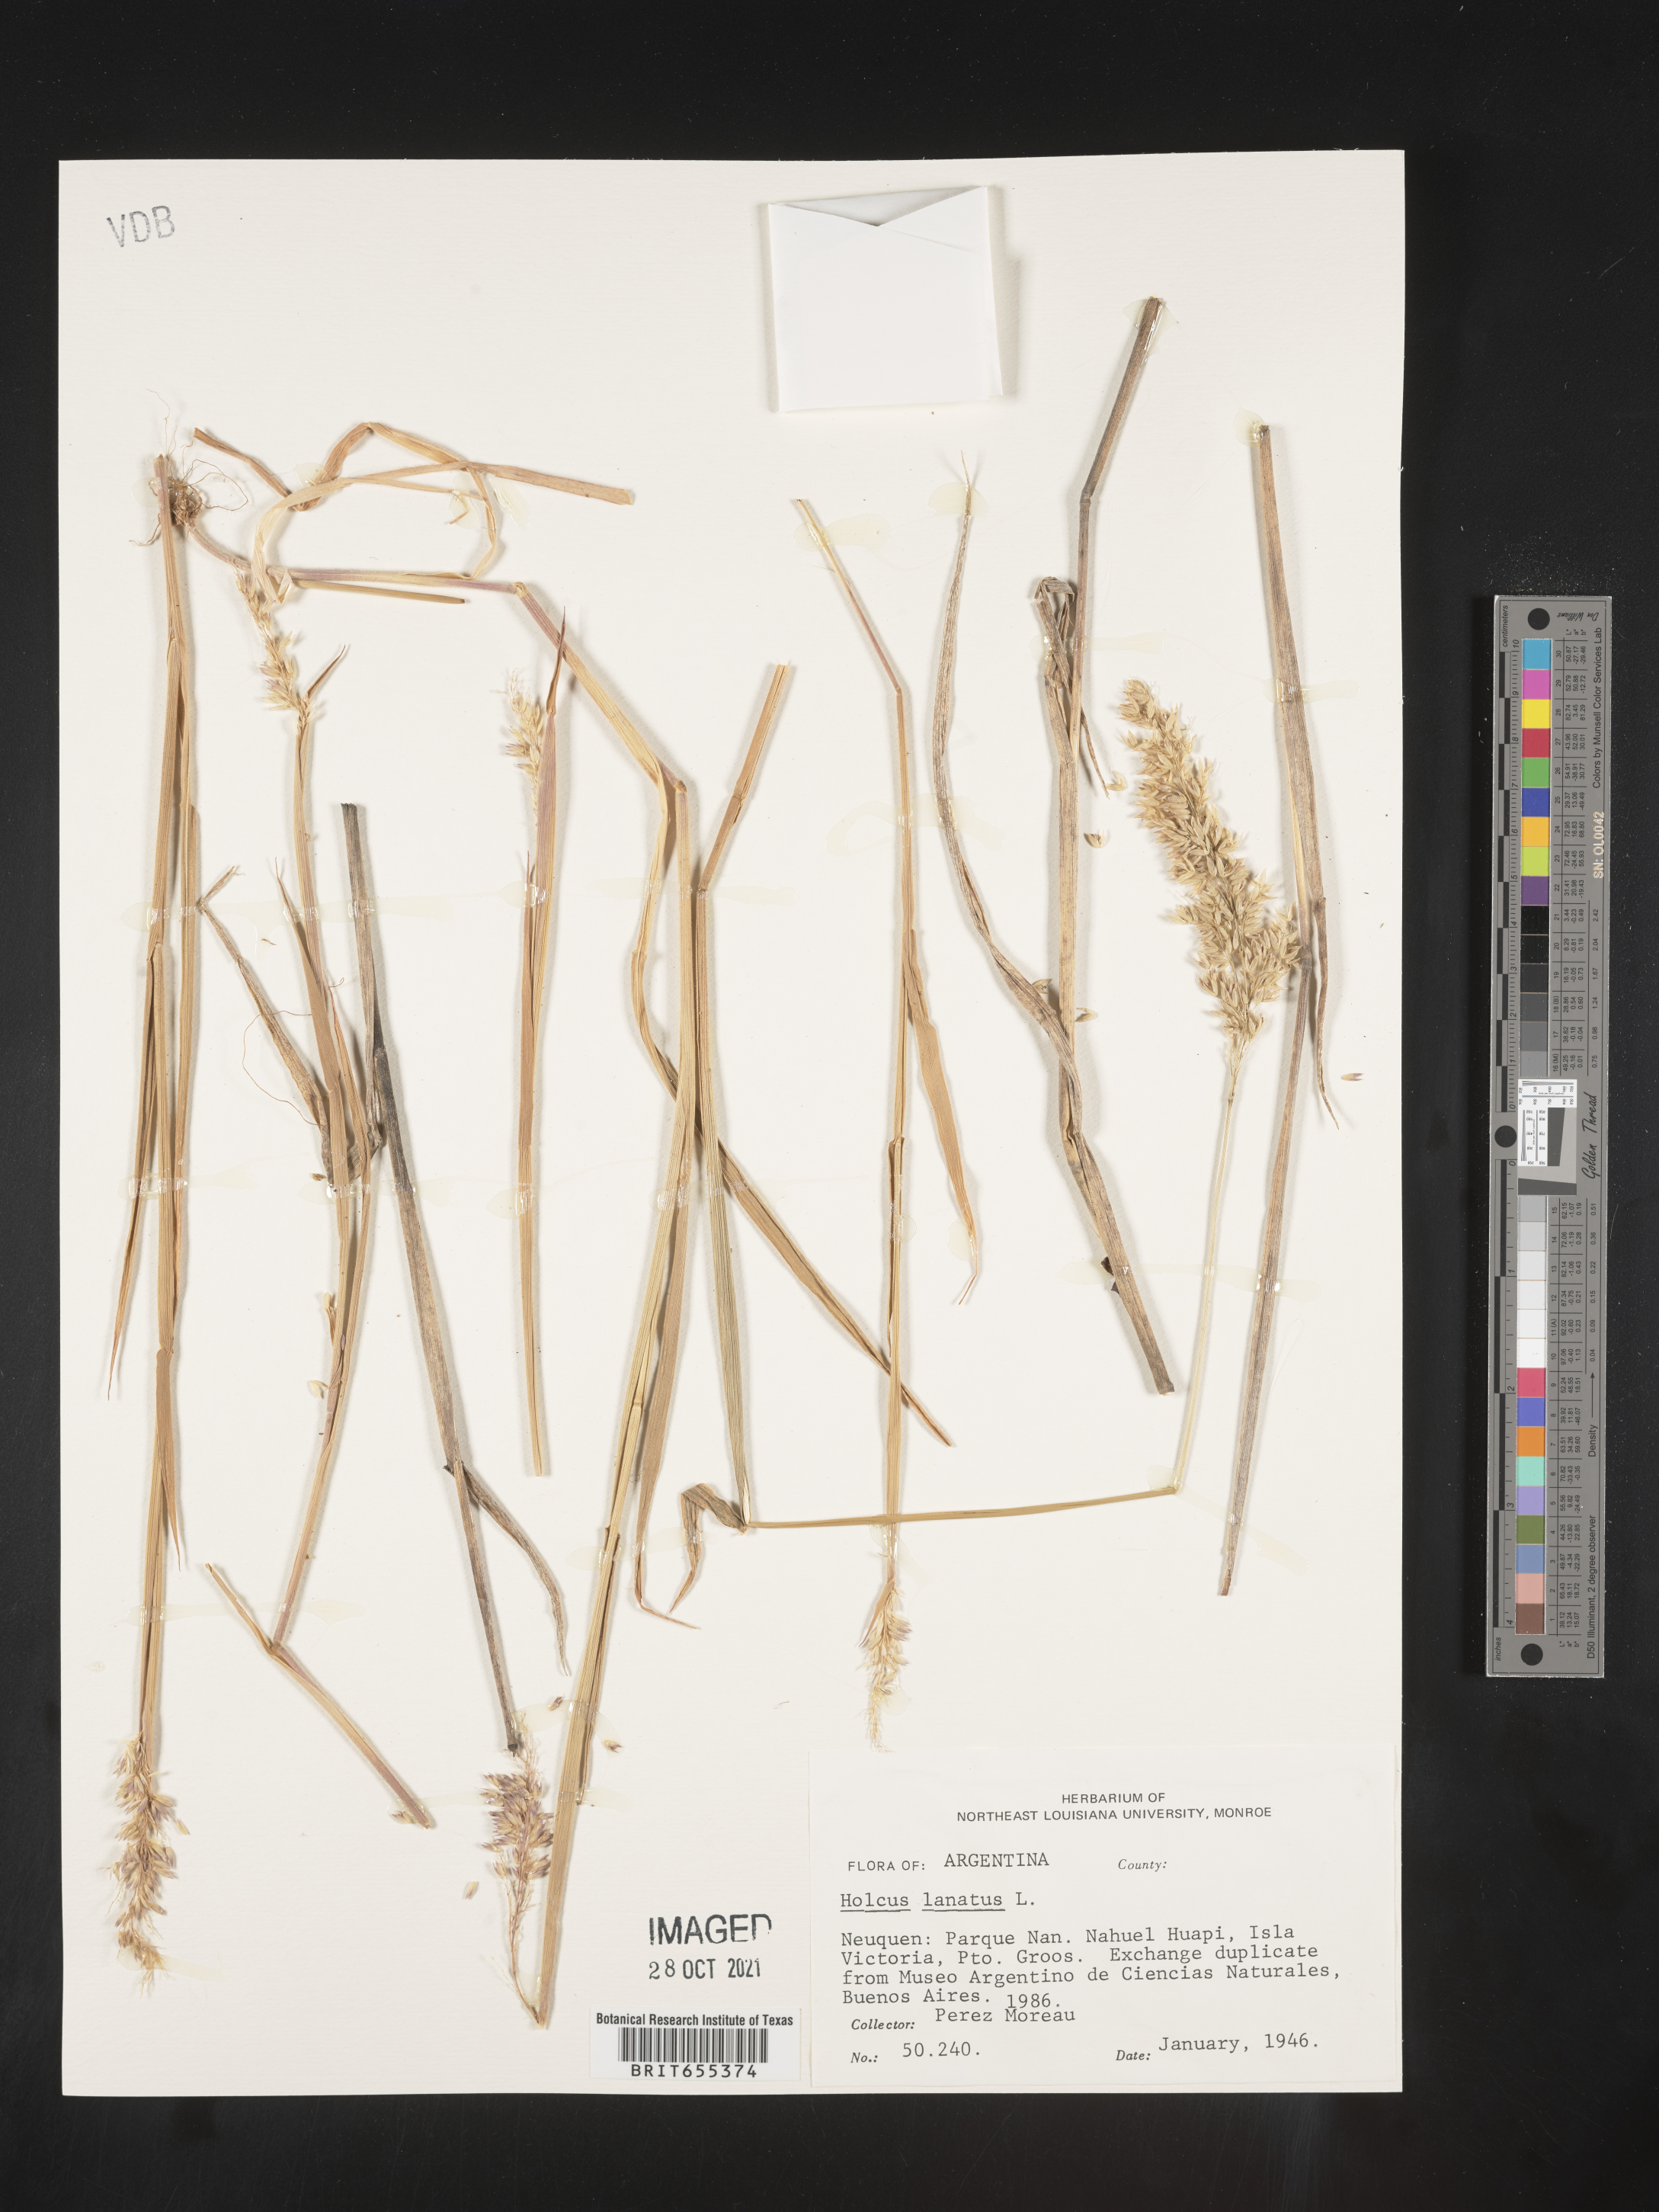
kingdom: Plantae
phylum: Tracheophyta
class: Liliopsida
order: Poales
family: Poaceae
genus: Holcus
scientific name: Holcus
